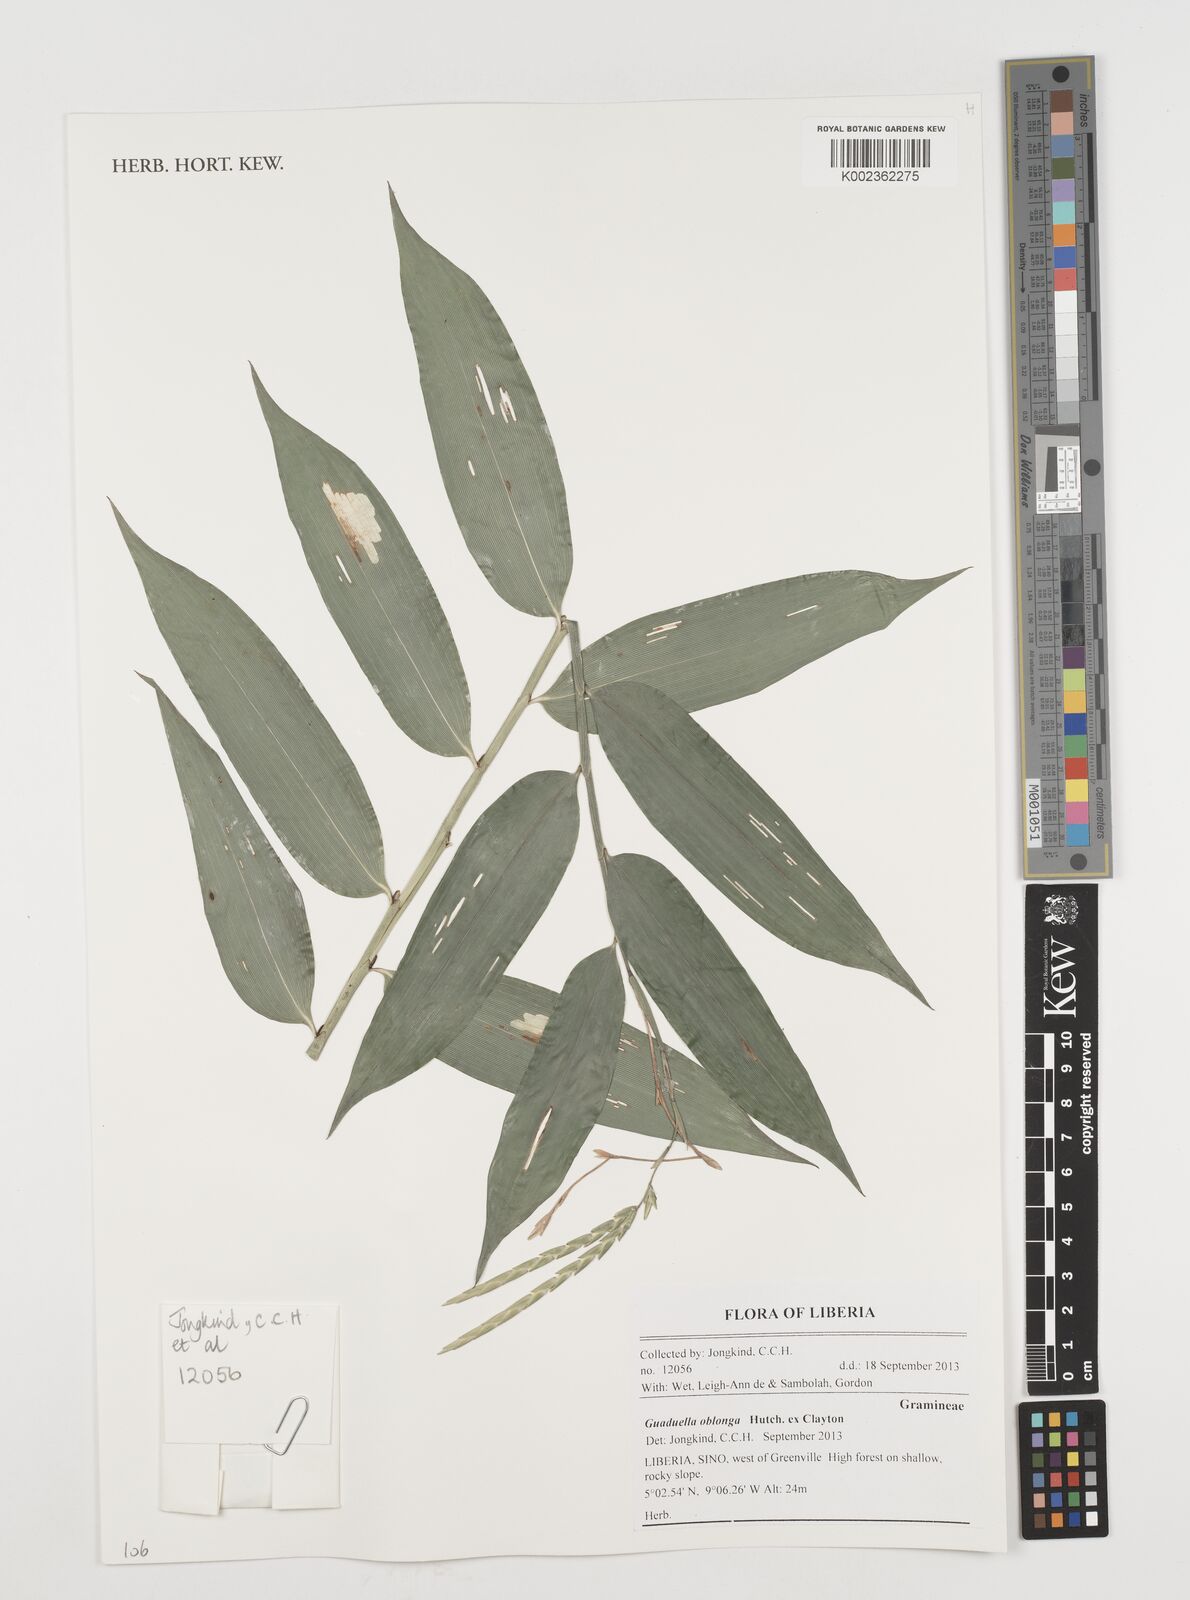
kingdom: Plantae
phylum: Tracheophyta
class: Liliopsida
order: Poales
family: Poaceae
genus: Guaduella
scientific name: Guaduella oblonga
